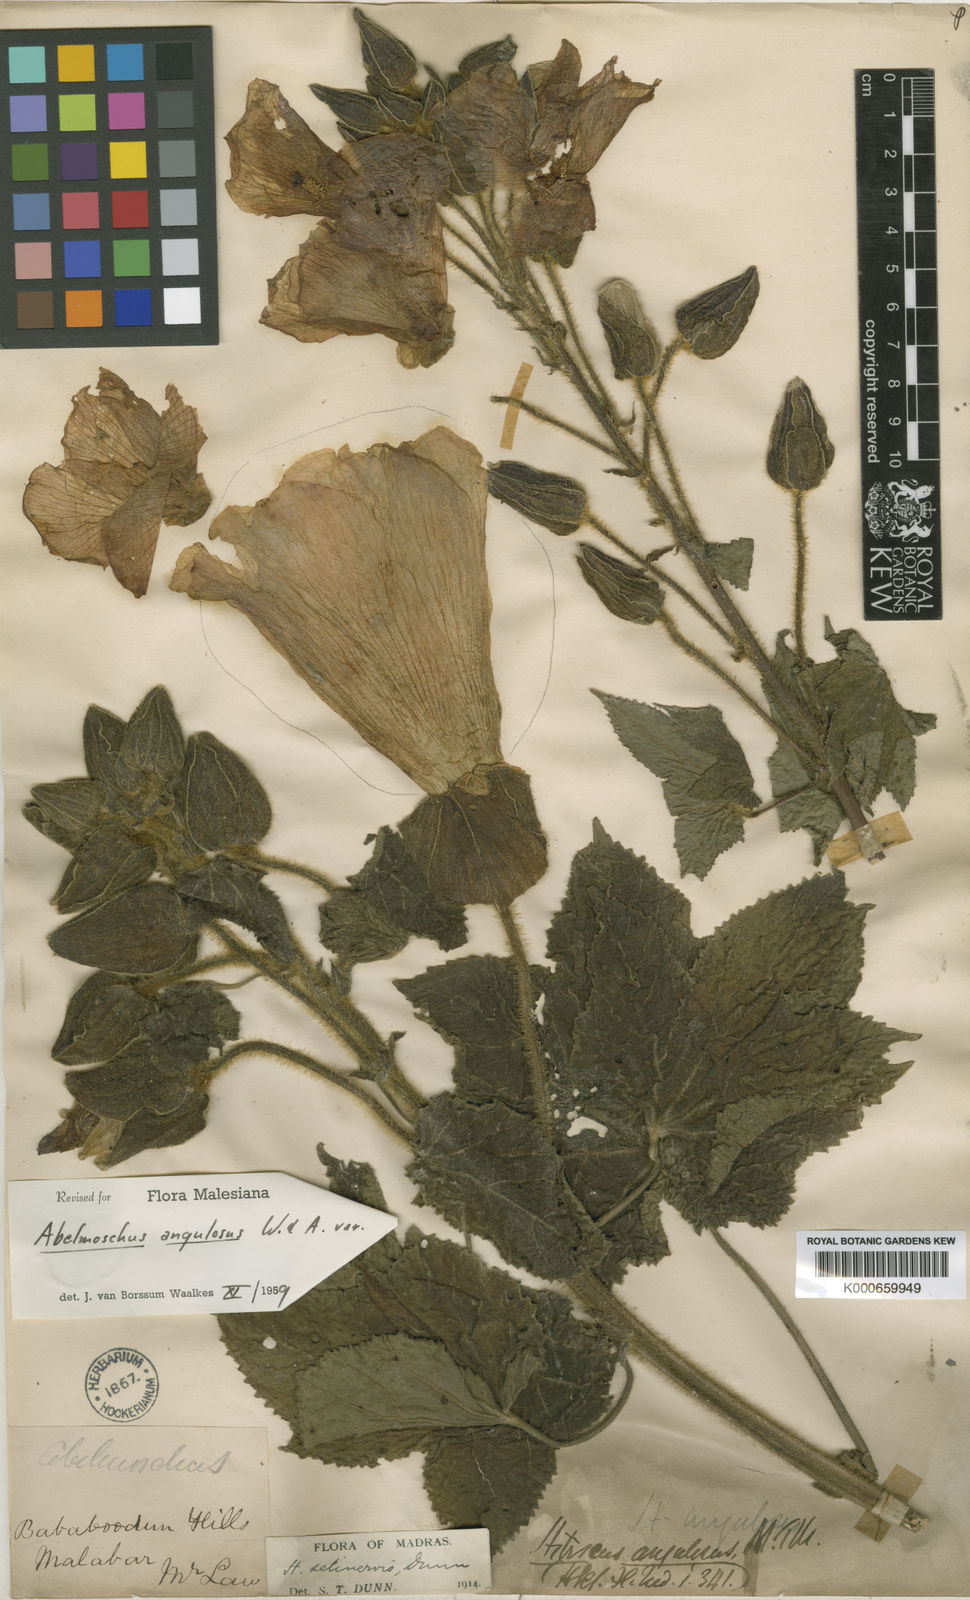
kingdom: Plantae
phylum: Tracheophyta
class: Magnoliopsida
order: Malvales
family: Malvaceae
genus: Abelmoschus
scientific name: Abelmoschus angulosus
